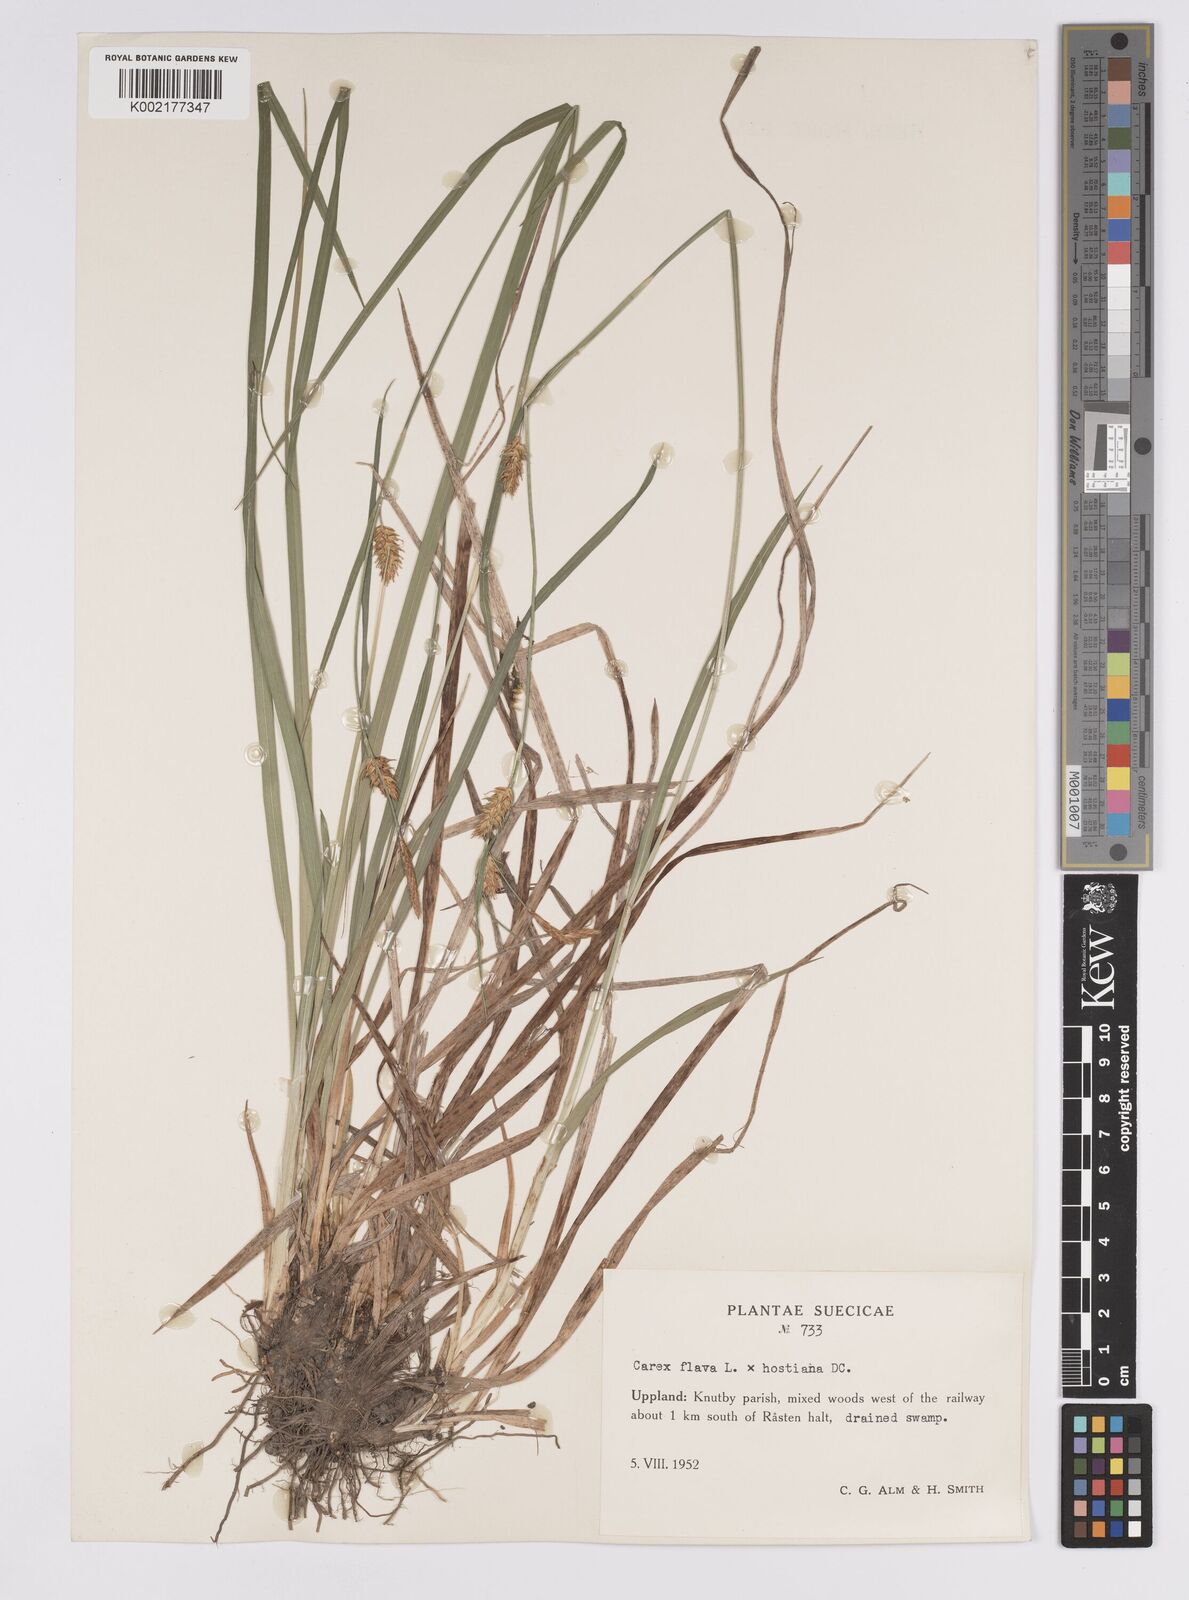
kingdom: Plantae
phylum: Tracheophyta
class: Liliopsida
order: Poales
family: Cyperaceae
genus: Carex
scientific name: Carex hostiana
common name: Tawny sedge
